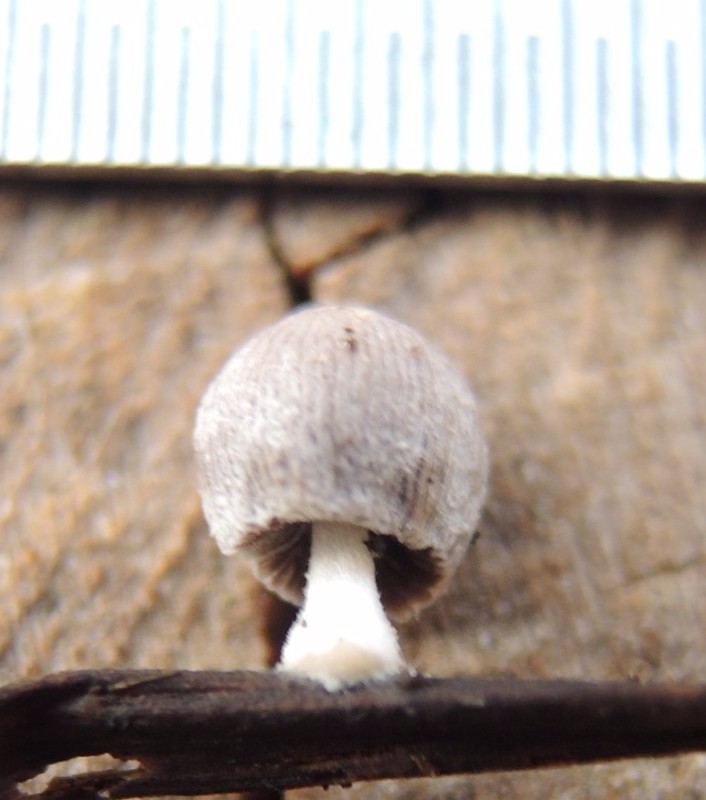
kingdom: Fungi
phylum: Basidiomycota
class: Agaricomycetes
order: Agaricales
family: Psathyrellaceae
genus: Coprinopsis
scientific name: Coprinopsis urticicola
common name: urte-blækhat
